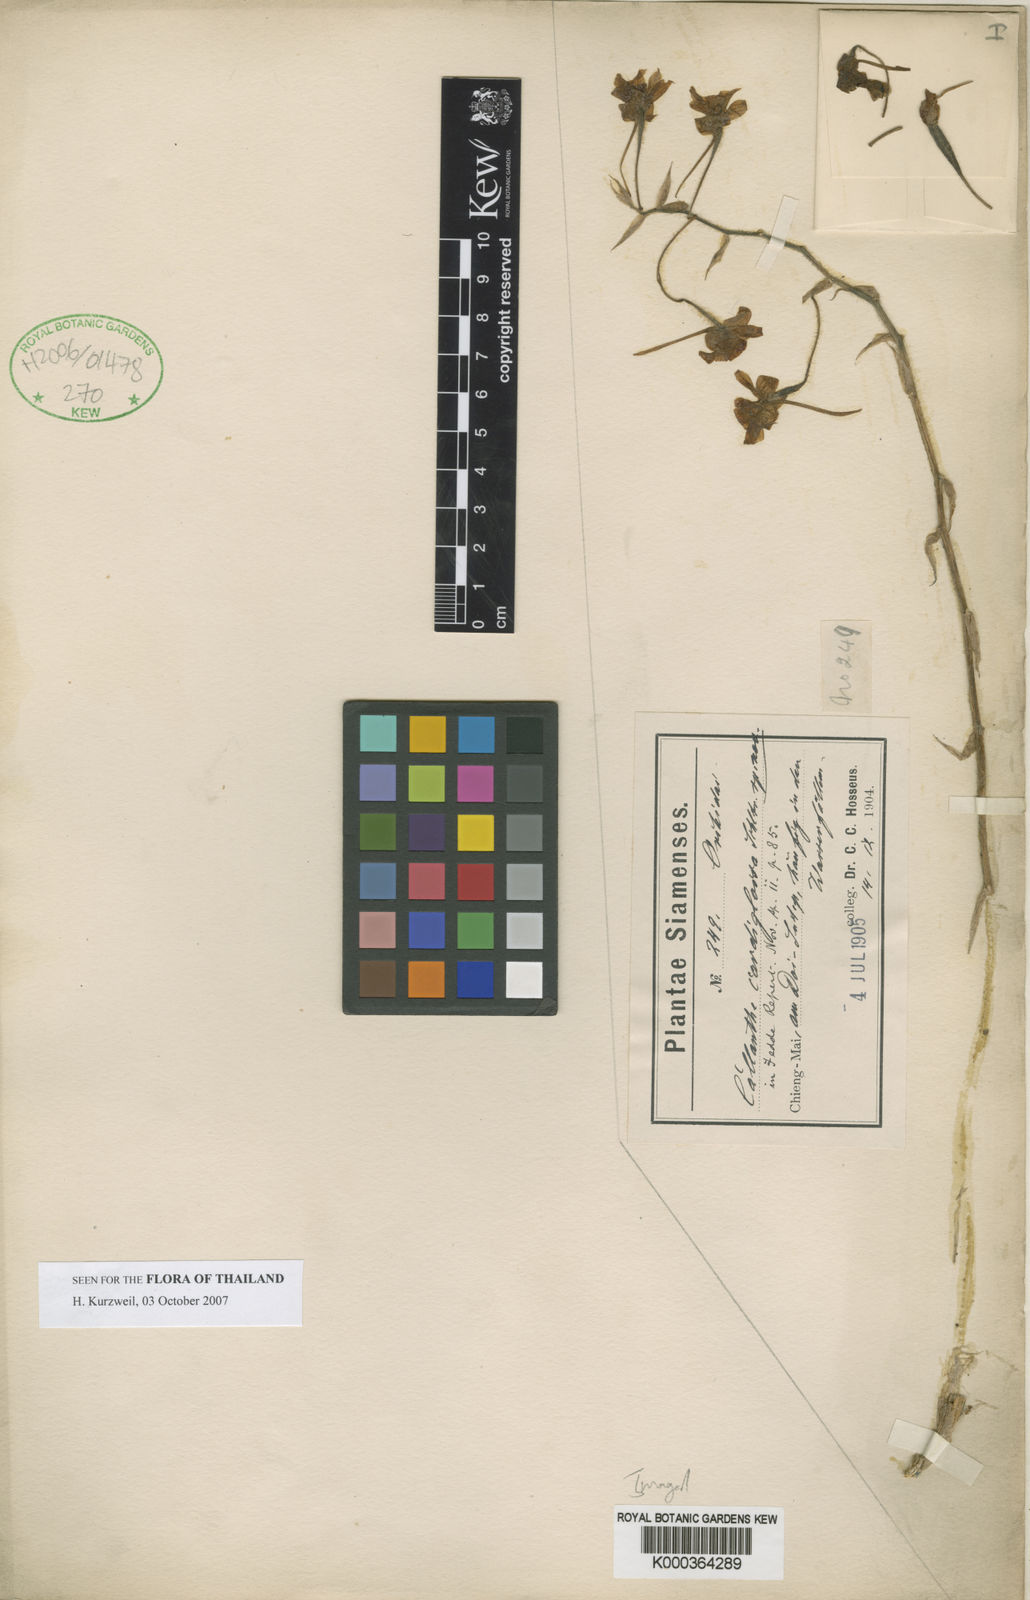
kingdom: Plantae
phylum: Tracheophyta
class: Liliopsida
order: Asparagales
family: Orchidaceae
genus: Calanthe
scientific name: Calanthe cardioglossa
